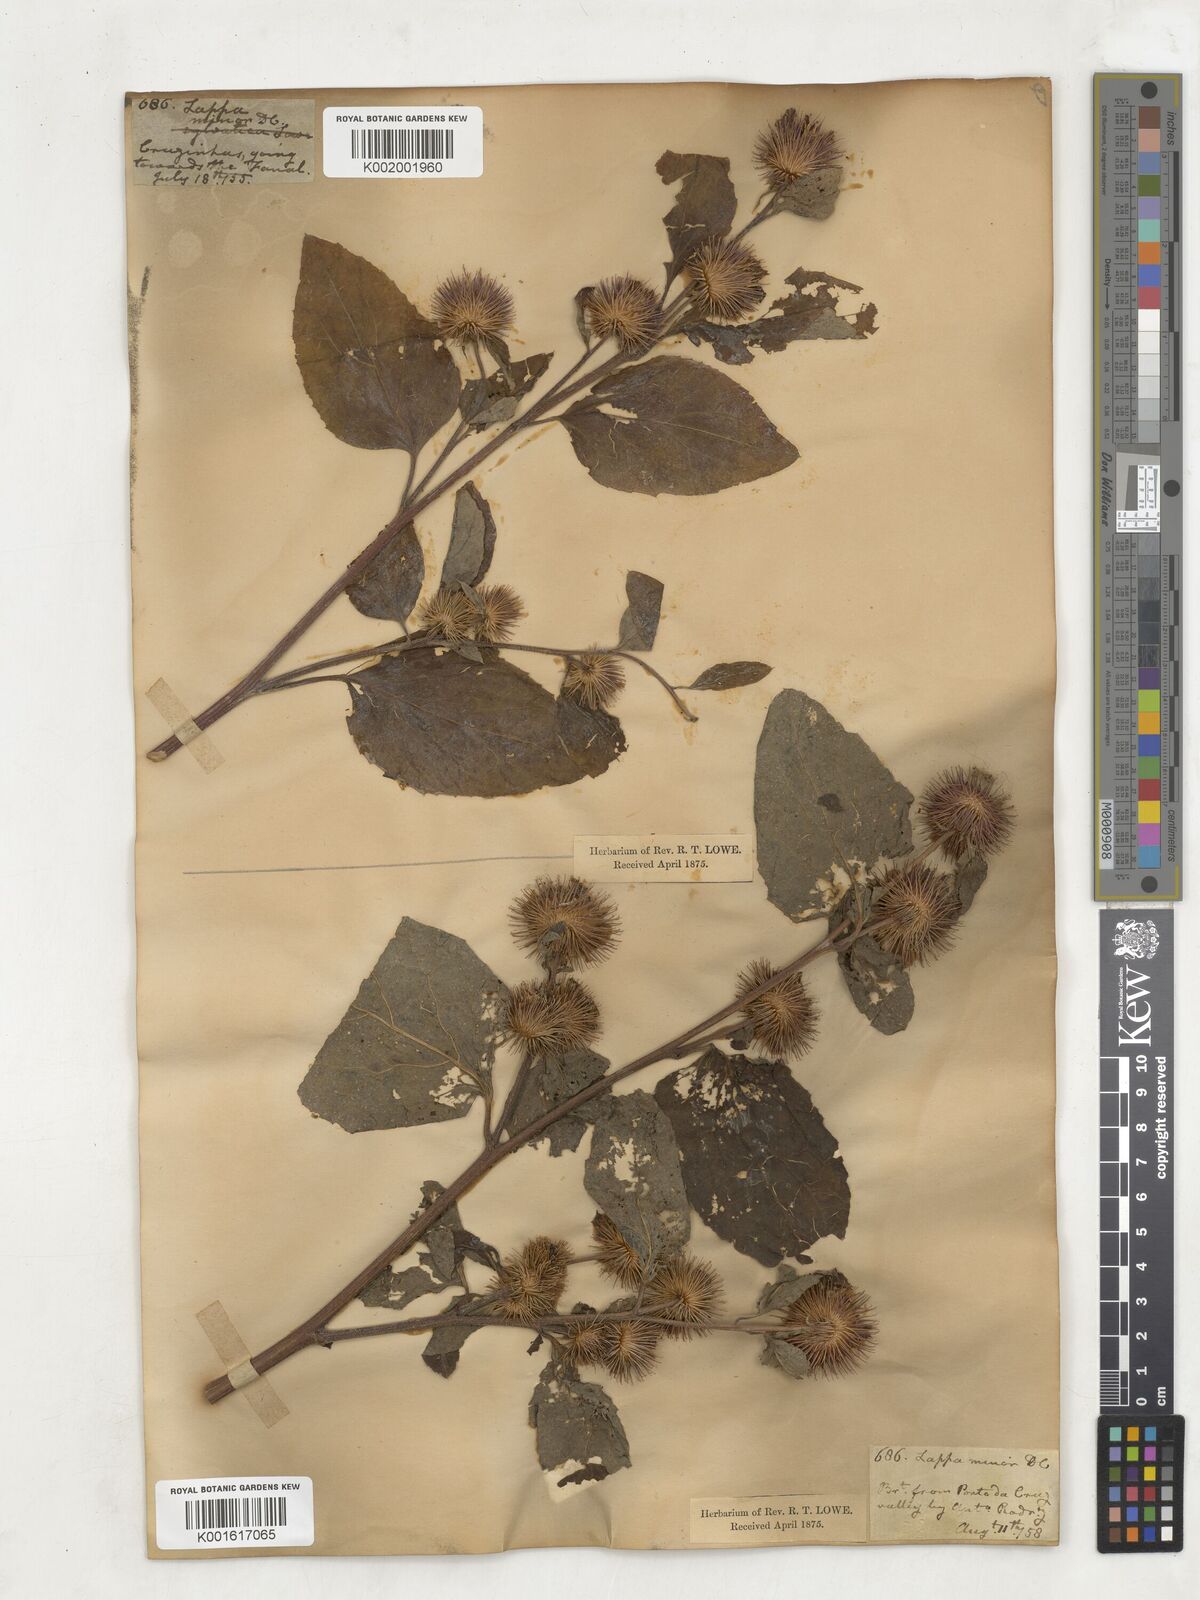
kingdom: Plantae
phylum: Tracheophyta
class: Magnoliopsida
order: Asterales
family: Asteraceae
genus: Arctium
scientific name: Arctium
